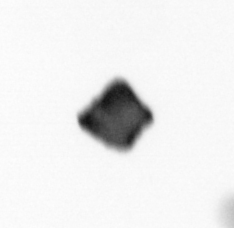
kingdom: Chromista
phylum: Ochrophyta
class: Bacillariophyceae
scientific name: Bacillariophyceae
